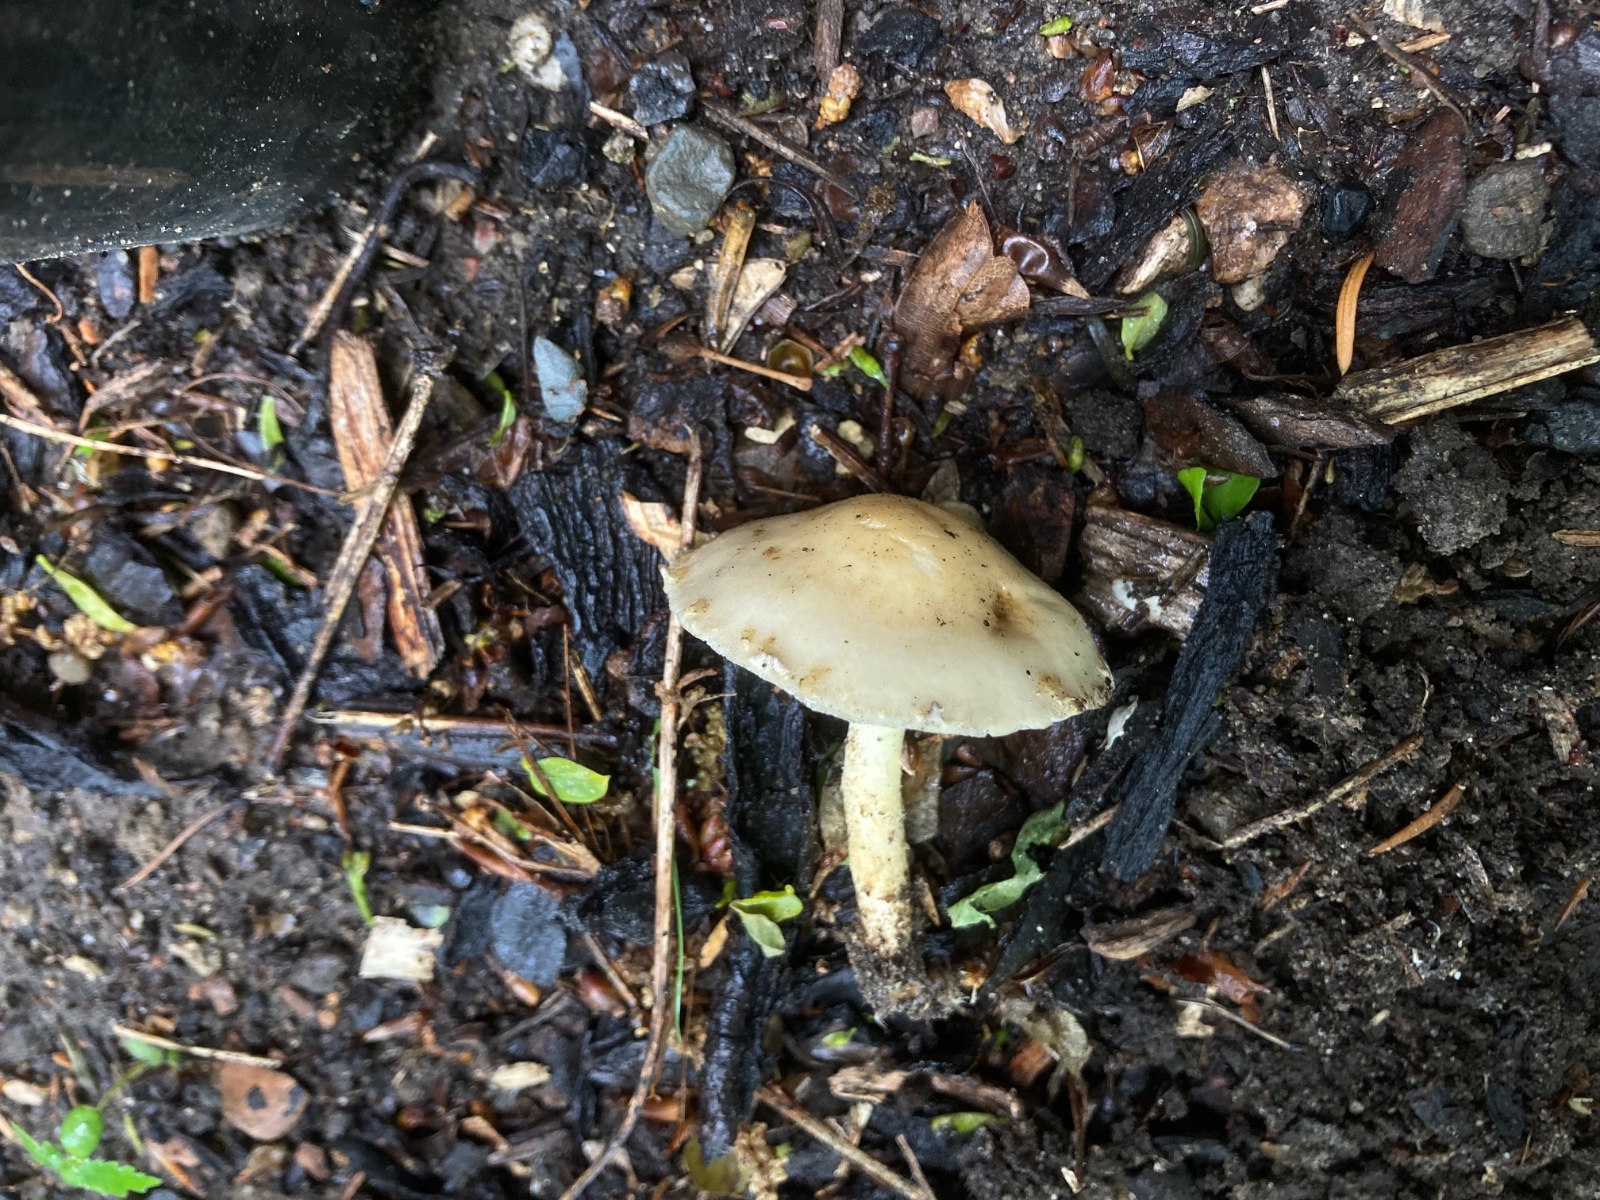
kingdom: Fungi
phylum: Basidiomycota
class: Agaricomycetes
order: Agaricales
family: Strophariaceae
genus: Leratiomyces
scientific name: Leratiomyces percevalii
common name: træflis-bredblad
